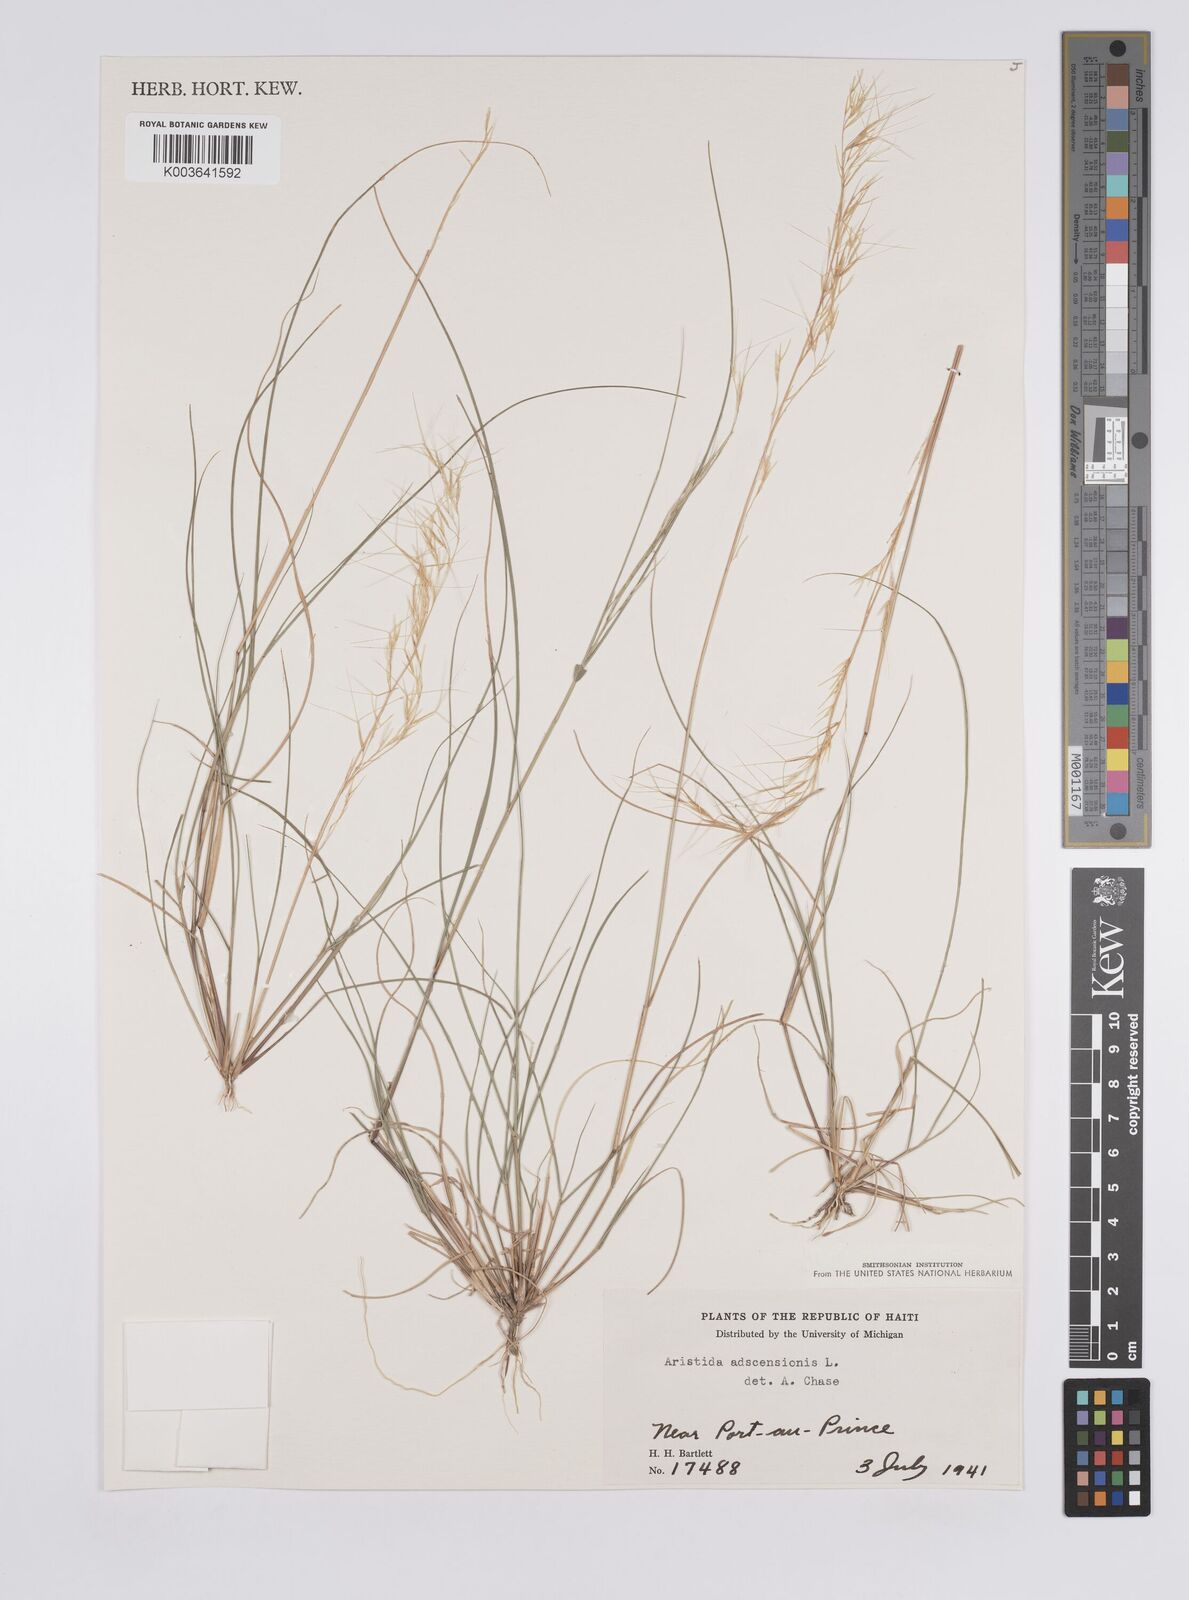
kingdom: Plantae
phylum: Tracheophyta
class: Liliopsida
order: Poales
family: Poaceae
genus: Aristida
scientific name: Aristida adscensionis
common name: Sixweeks threeawn
